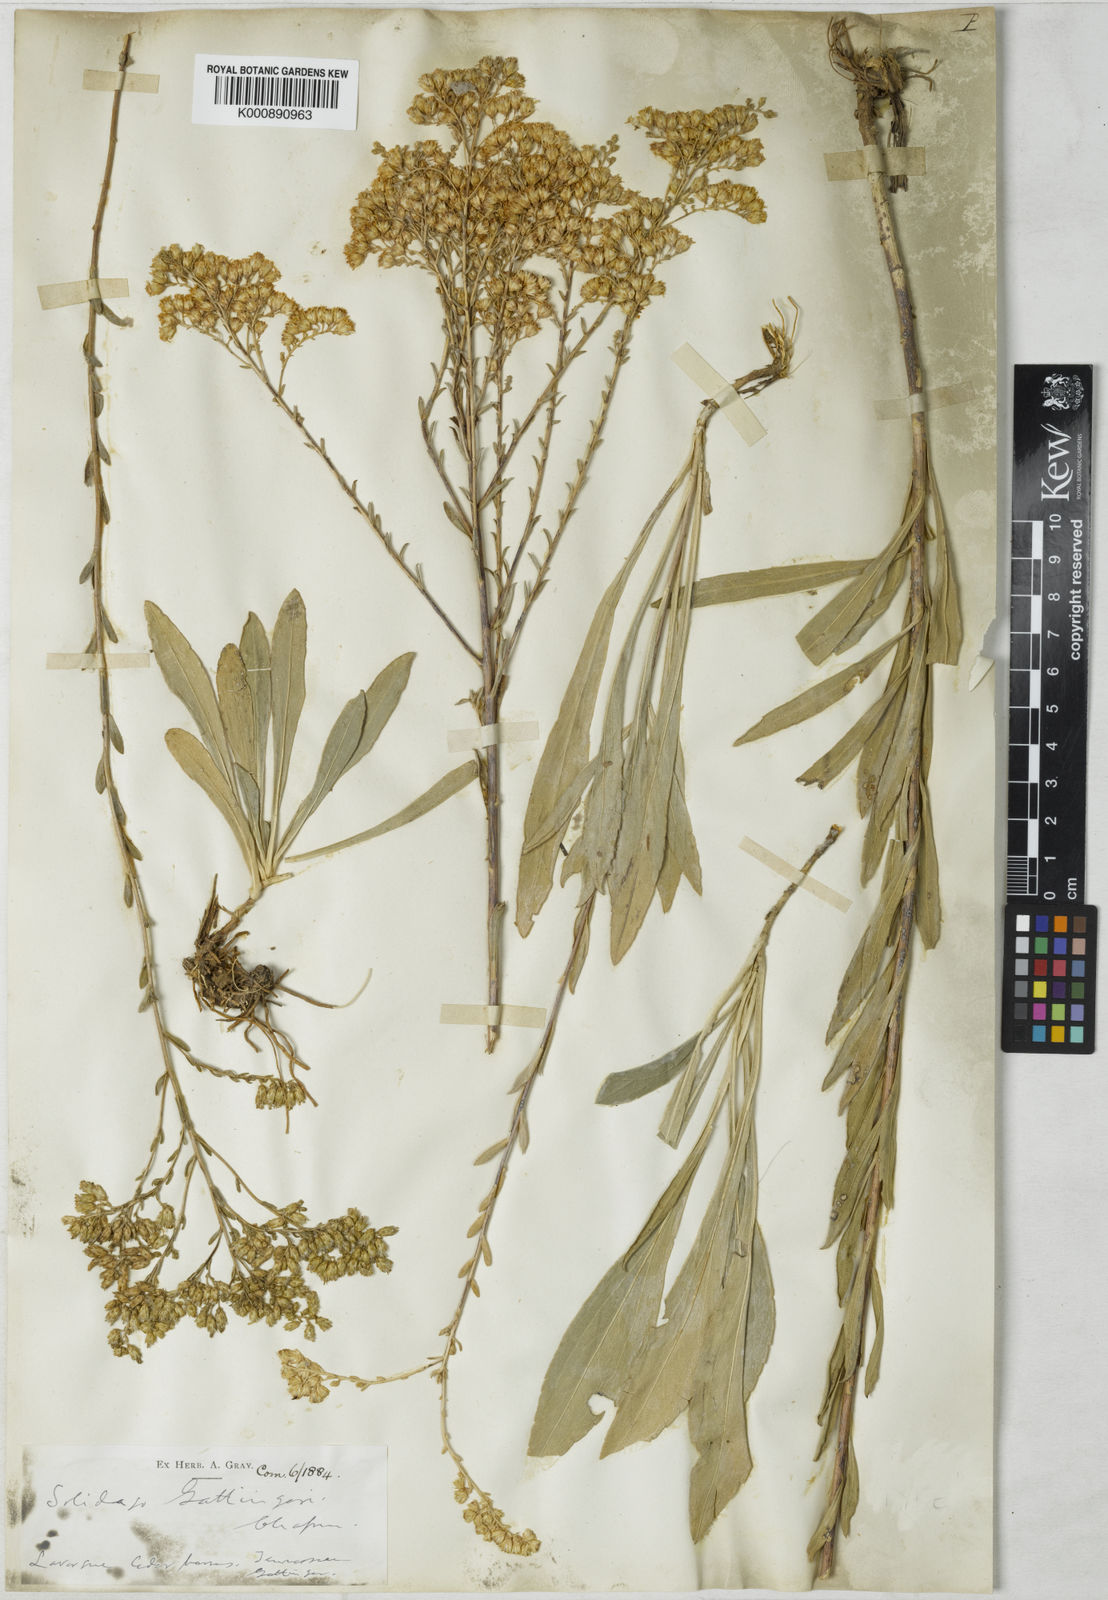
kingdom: Plantae
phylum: Tracheophyta
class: Magnoliopsida
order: Asterales
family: Asteraceae
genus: Solidago
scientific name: Solidago gattingeri
